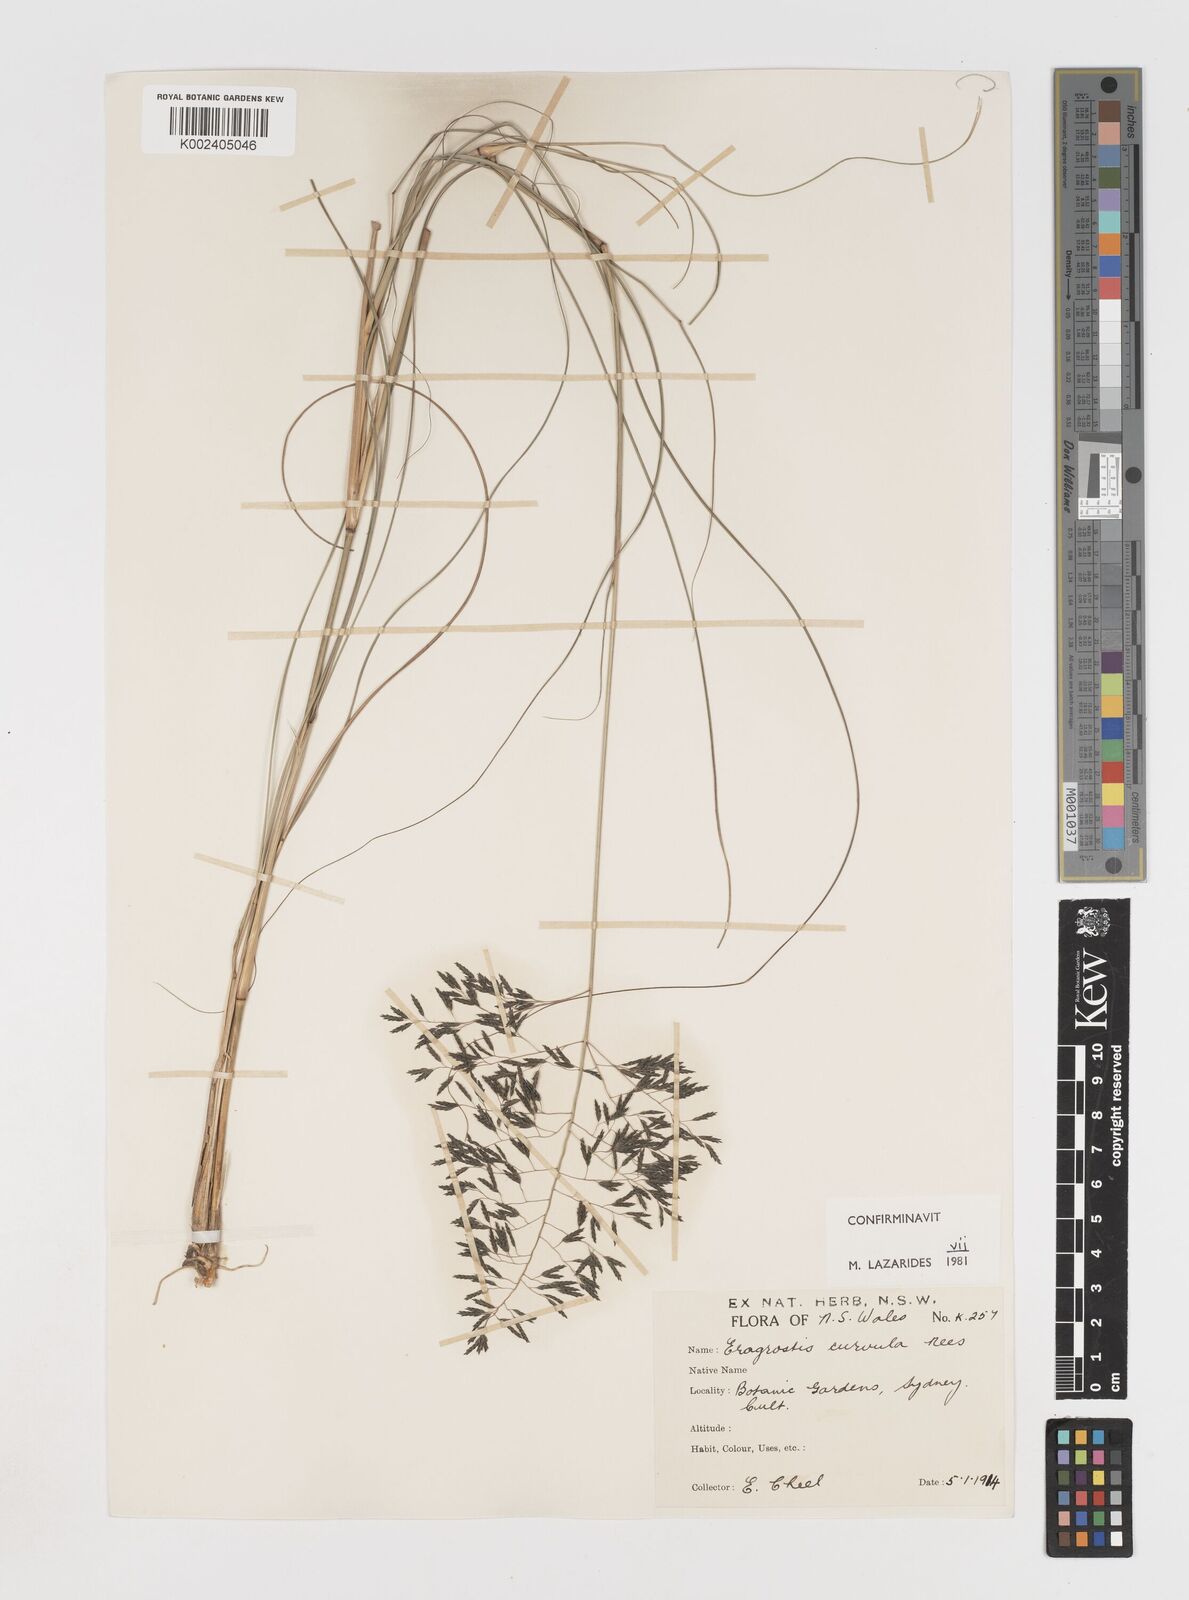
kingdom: Plantae
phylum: Tracheophyta
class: Liliopsida
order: Poales
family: Poaceae
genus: Eragrostis
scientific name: Eragrostis curvula
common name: African love-grass
